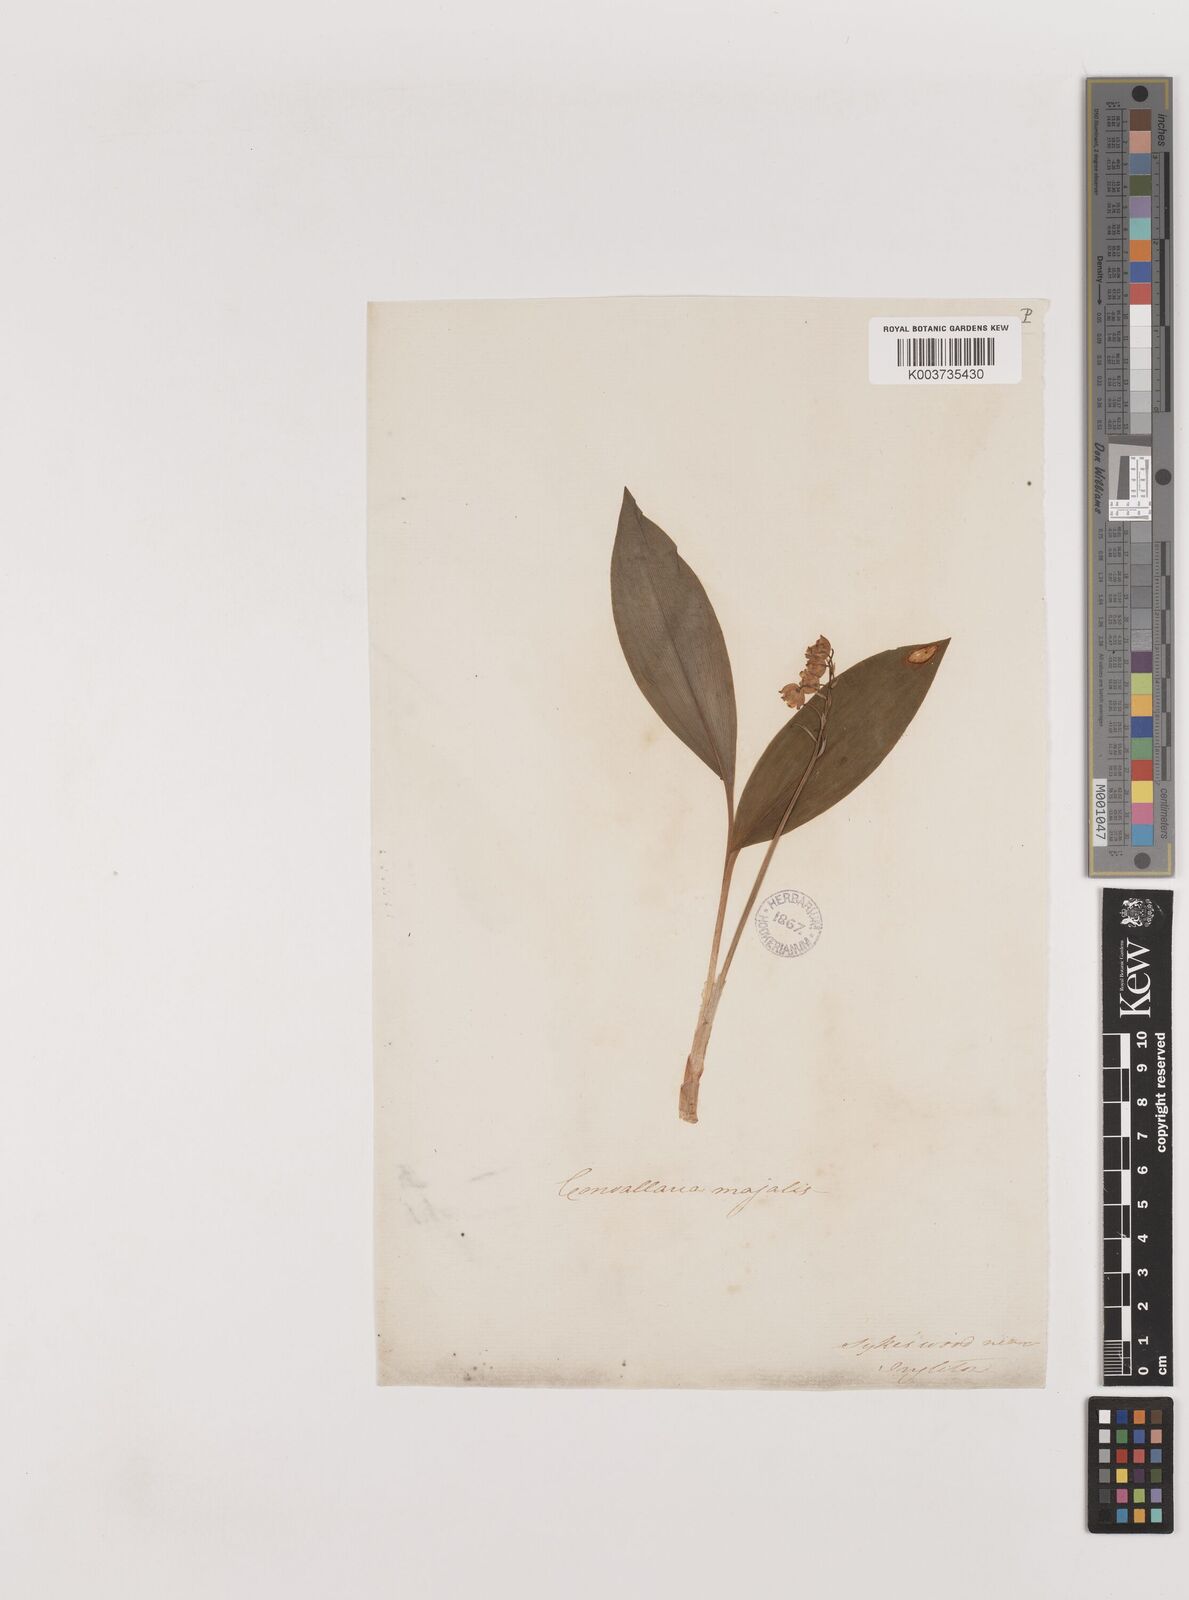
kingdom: Plantae
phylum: Tracheophyta
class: Liliopsida
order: Asparagales
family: Asparagaceae
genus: Convallaria
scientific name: Convallaria majalis
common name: Lily-of-the-valley
